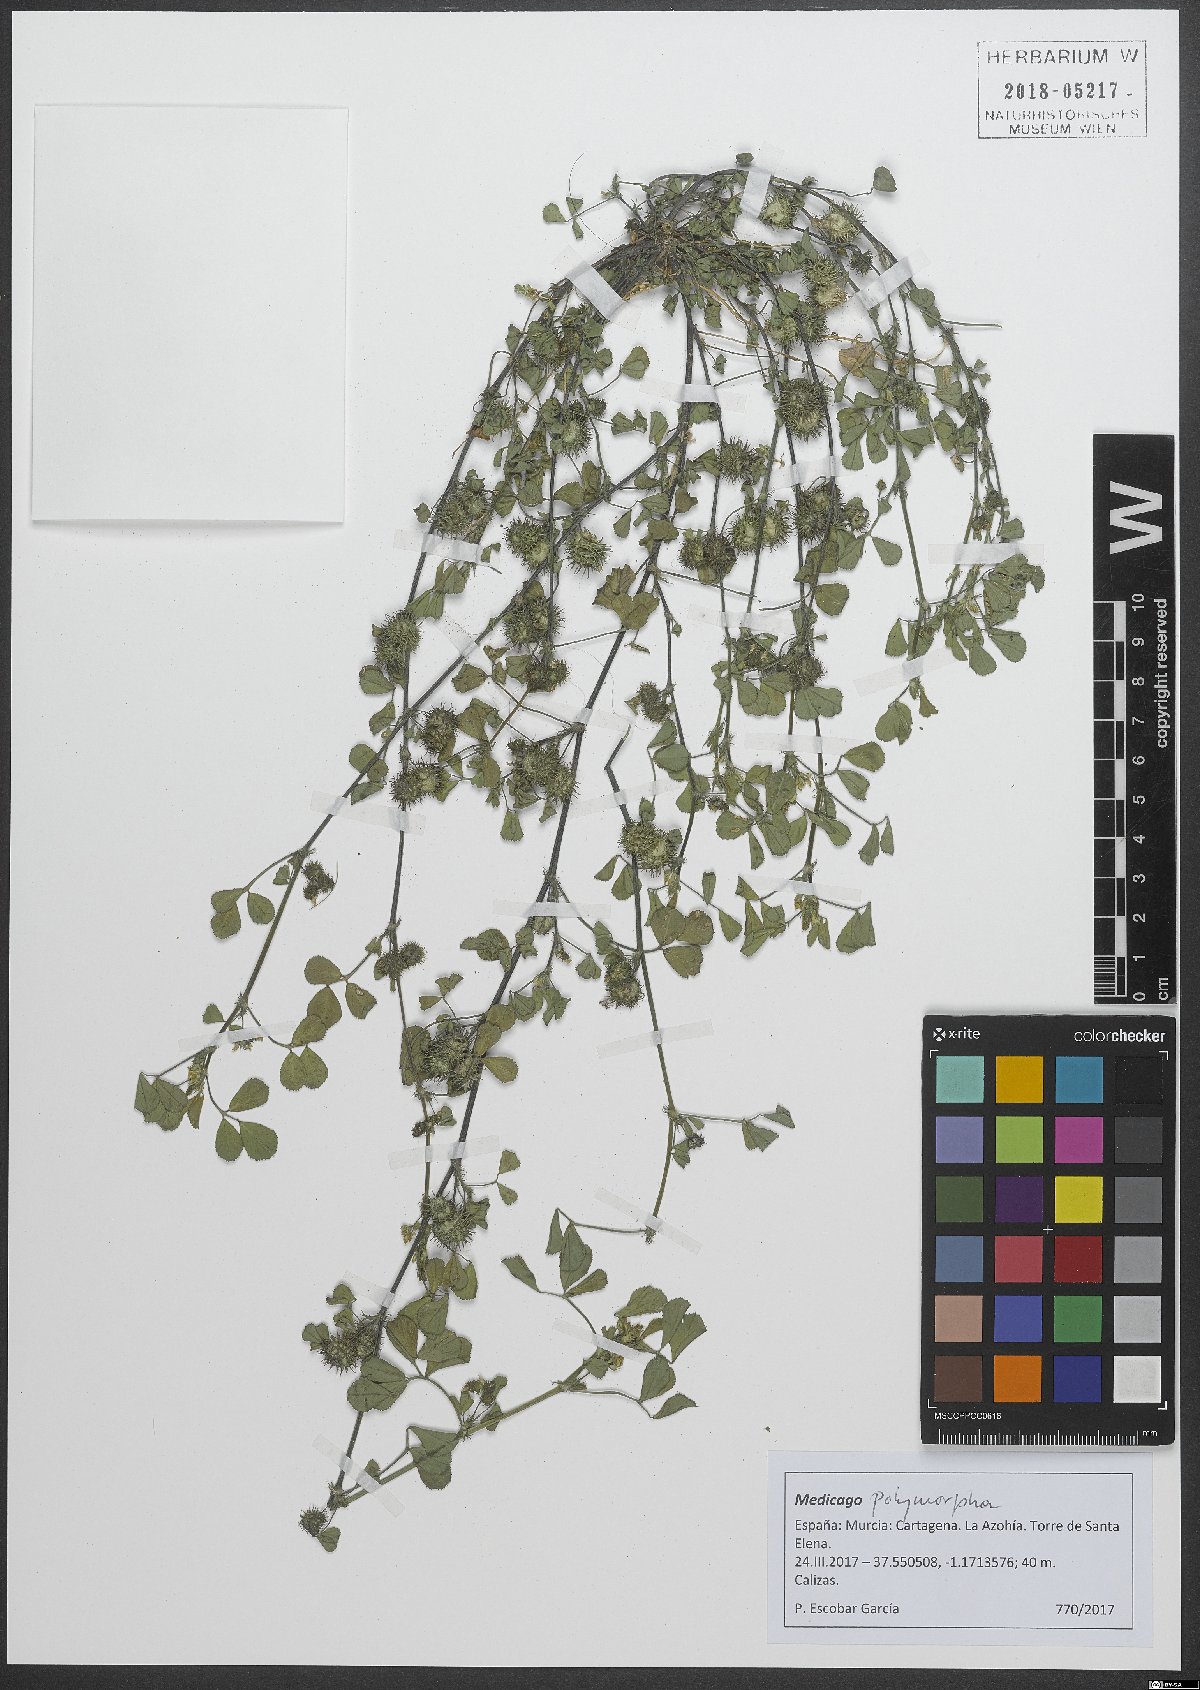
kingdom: Plantae
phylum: Tracheophyta
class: Magnoliopsida
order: Fabales
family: Fabaceae
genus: Medicago
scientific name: Medicago polymorpha
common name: Burclover
